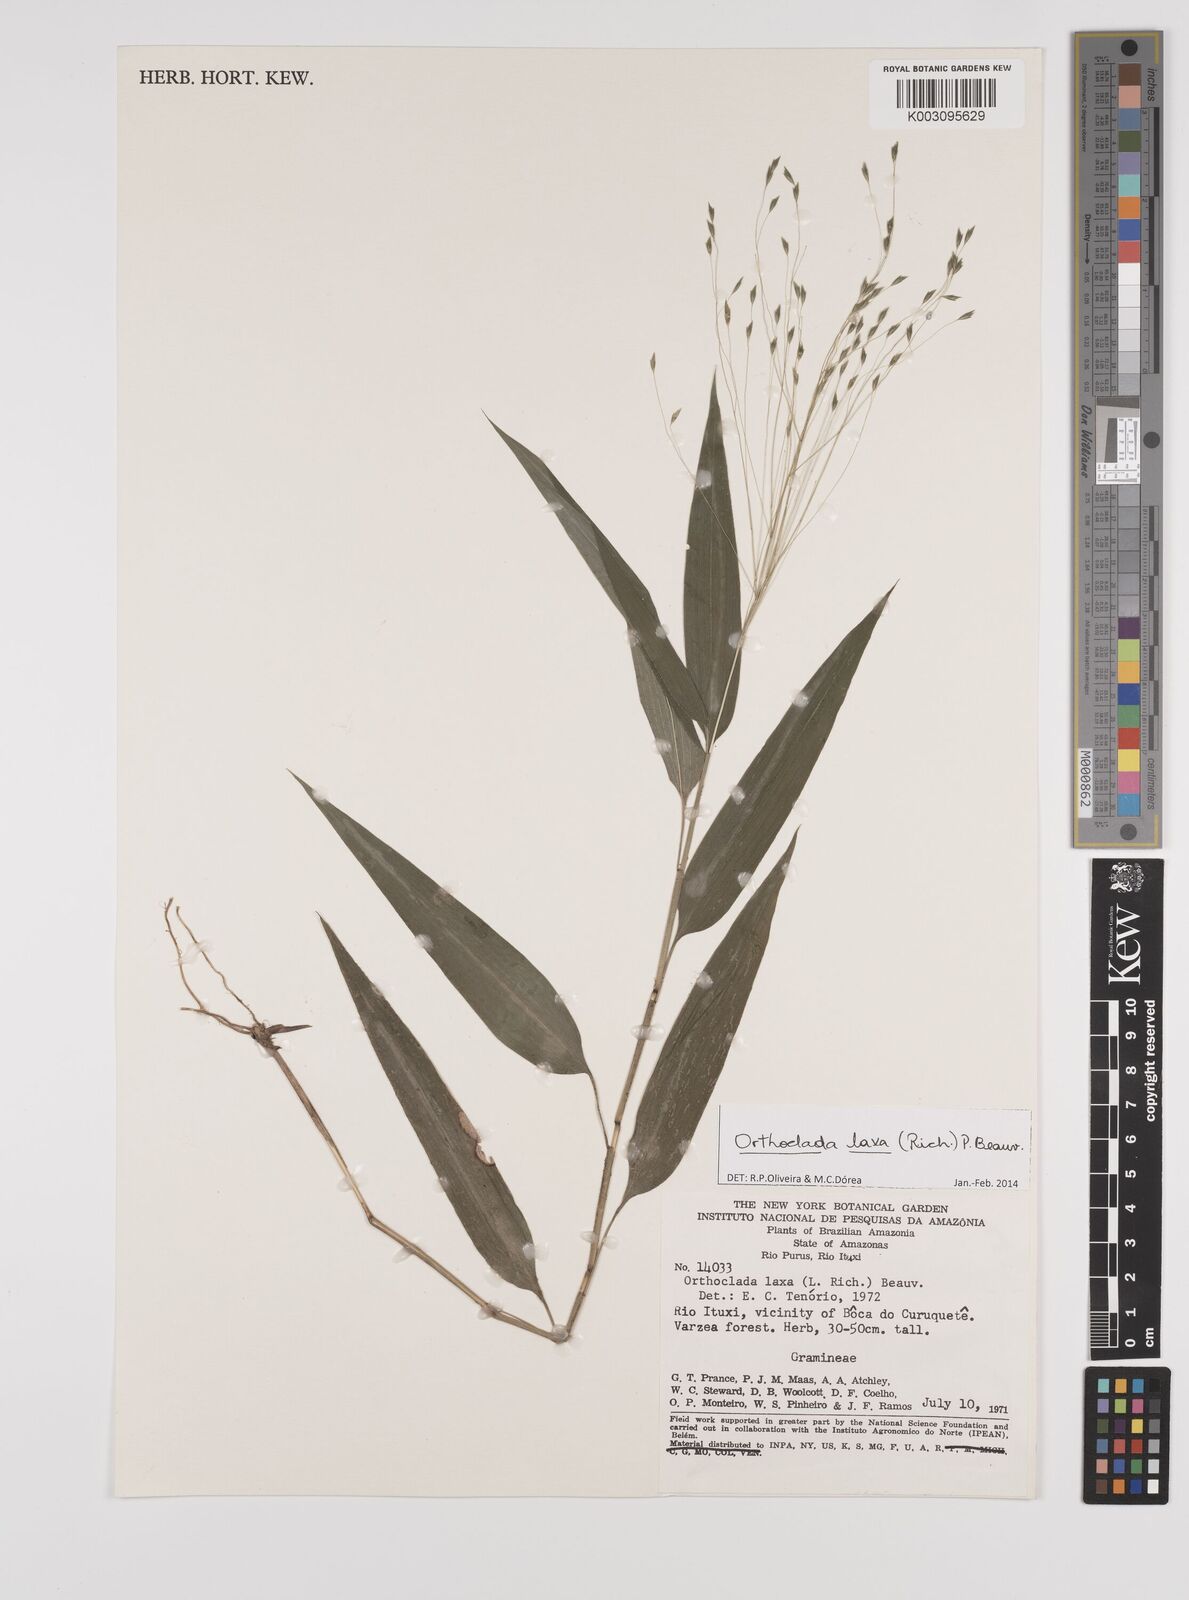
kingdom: Plantae
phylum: Tracheophyta
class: Liliopsida
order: Poales
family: Poaceae
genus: Orthoclada
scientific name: Orthoclada laxa
